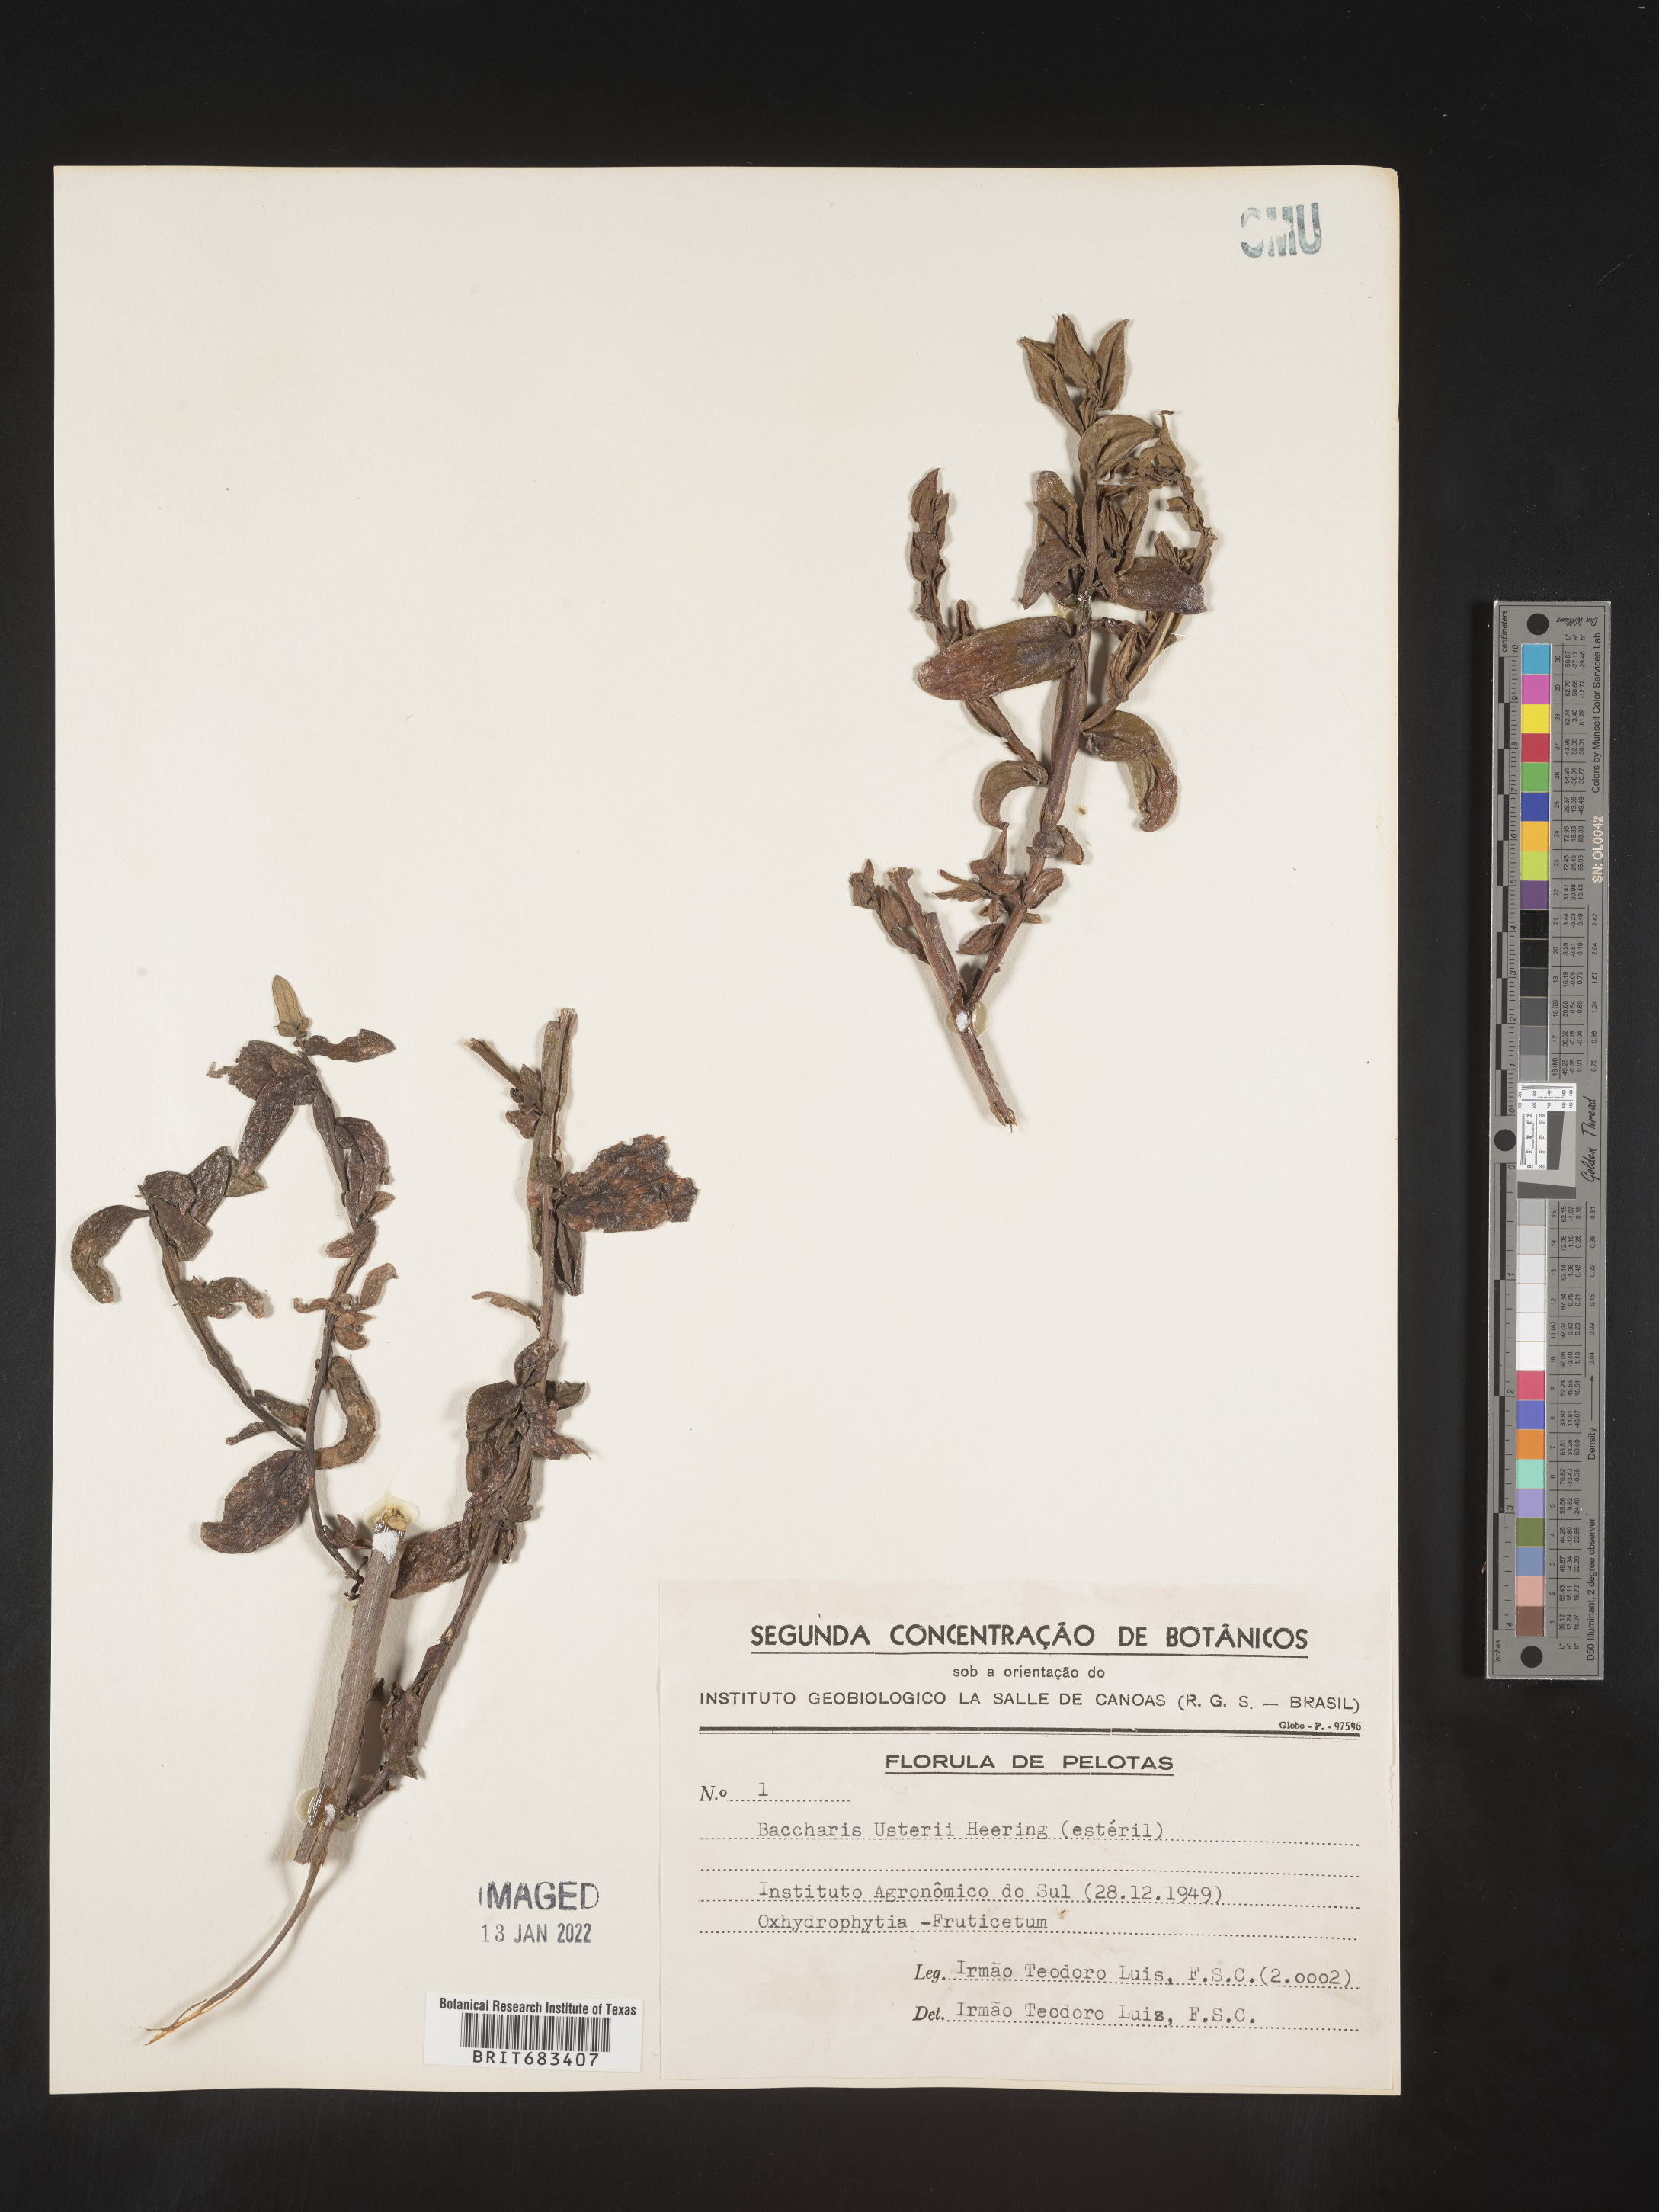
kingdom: Plantae
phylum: Tracheophyta
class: Magnoliopsida
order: Asterales
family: Asteraceae
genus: Baccharis
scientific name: Baccharis
